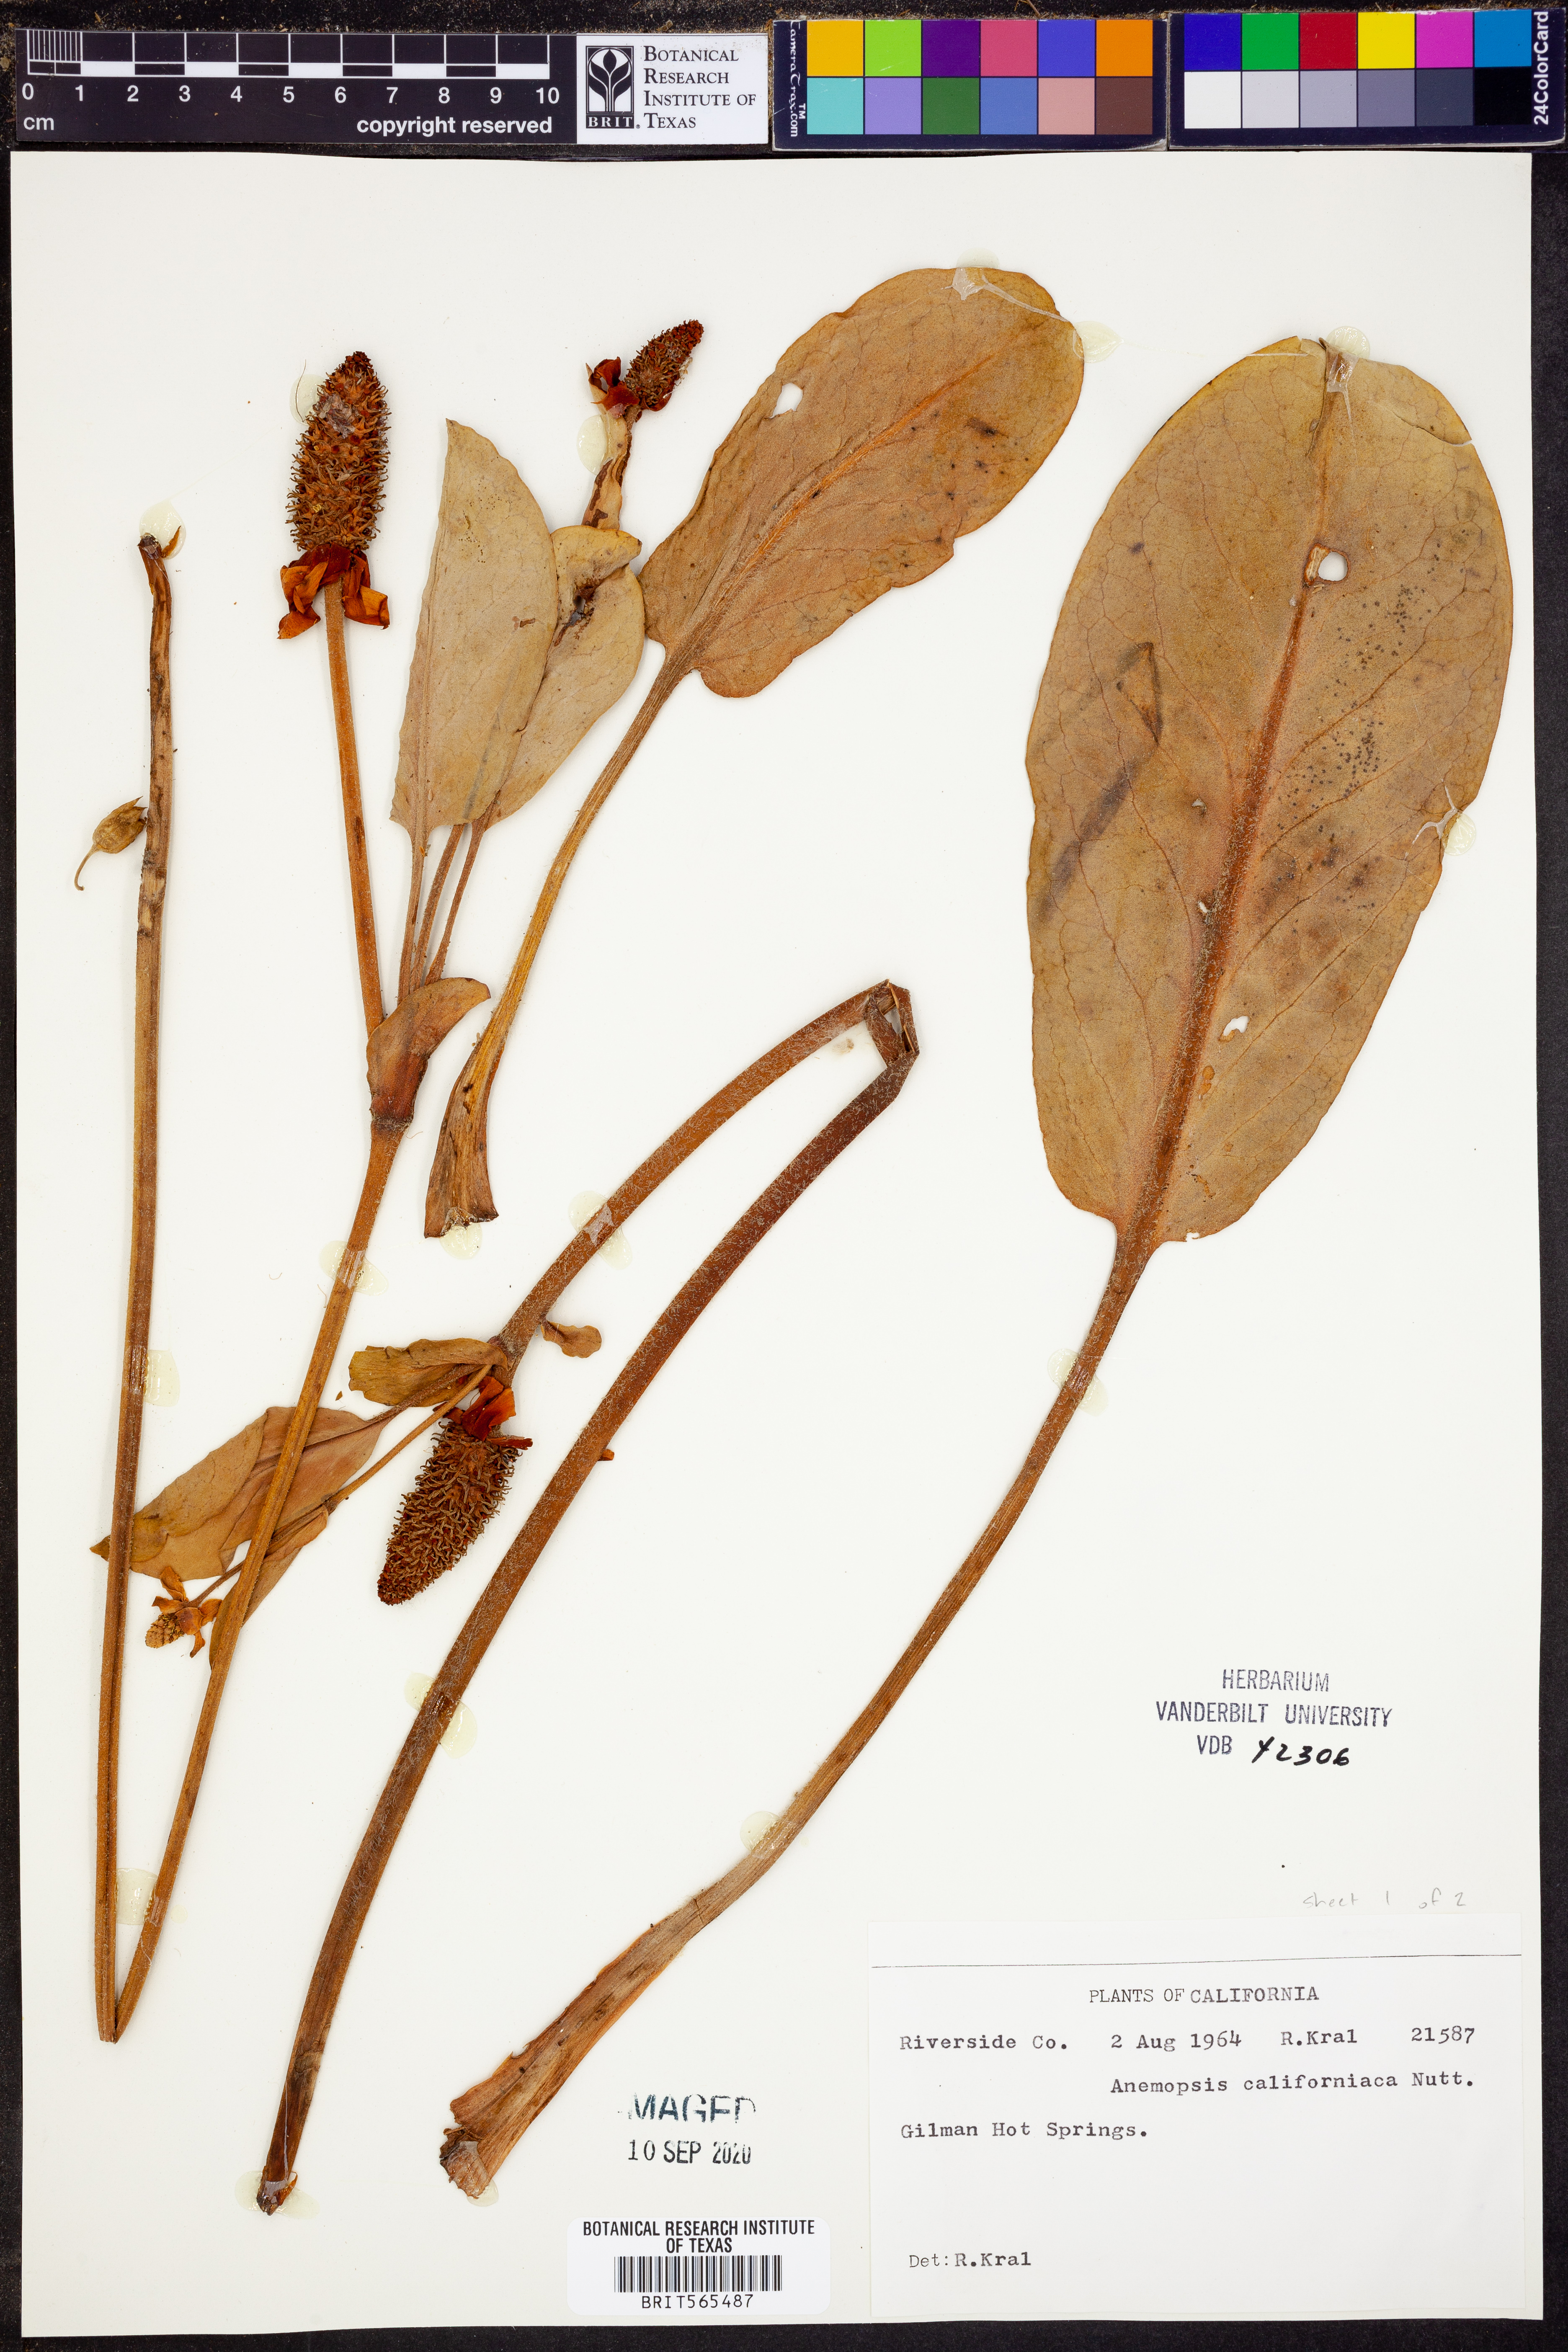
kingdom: Plantae
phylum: Tracheophyta
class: Magnoliopsida
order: Piperales
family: Saururaceae
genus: Anemopsis
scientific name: Anemopsis californica
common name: Apache-beads
